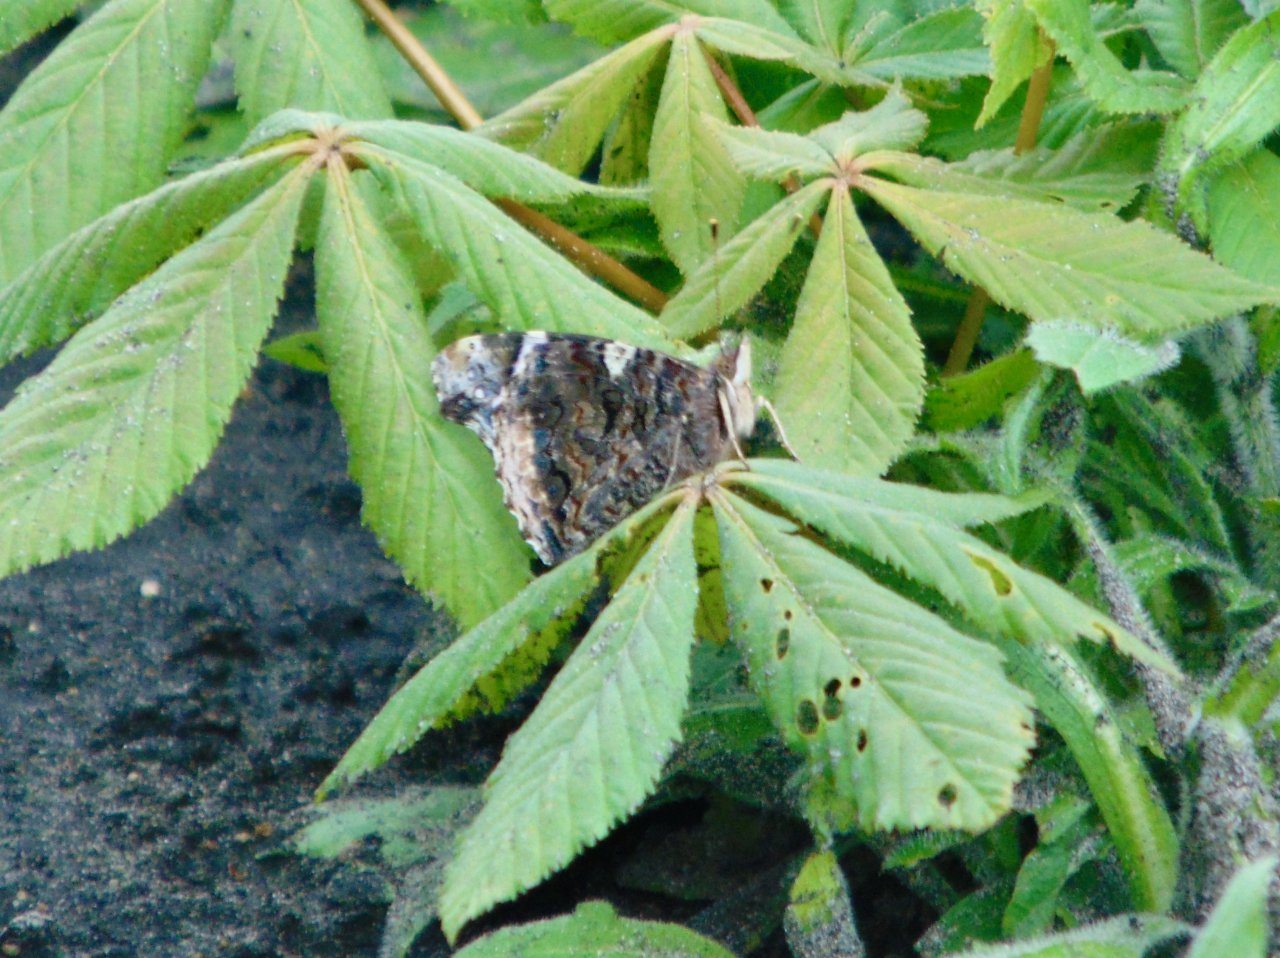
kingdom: Animalia
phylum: Arthropoda
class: Insecta
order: Lepidoptera
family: Nymphalidae
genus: Vanessa
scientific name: Vanessa atalanta
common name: Red Admiral
